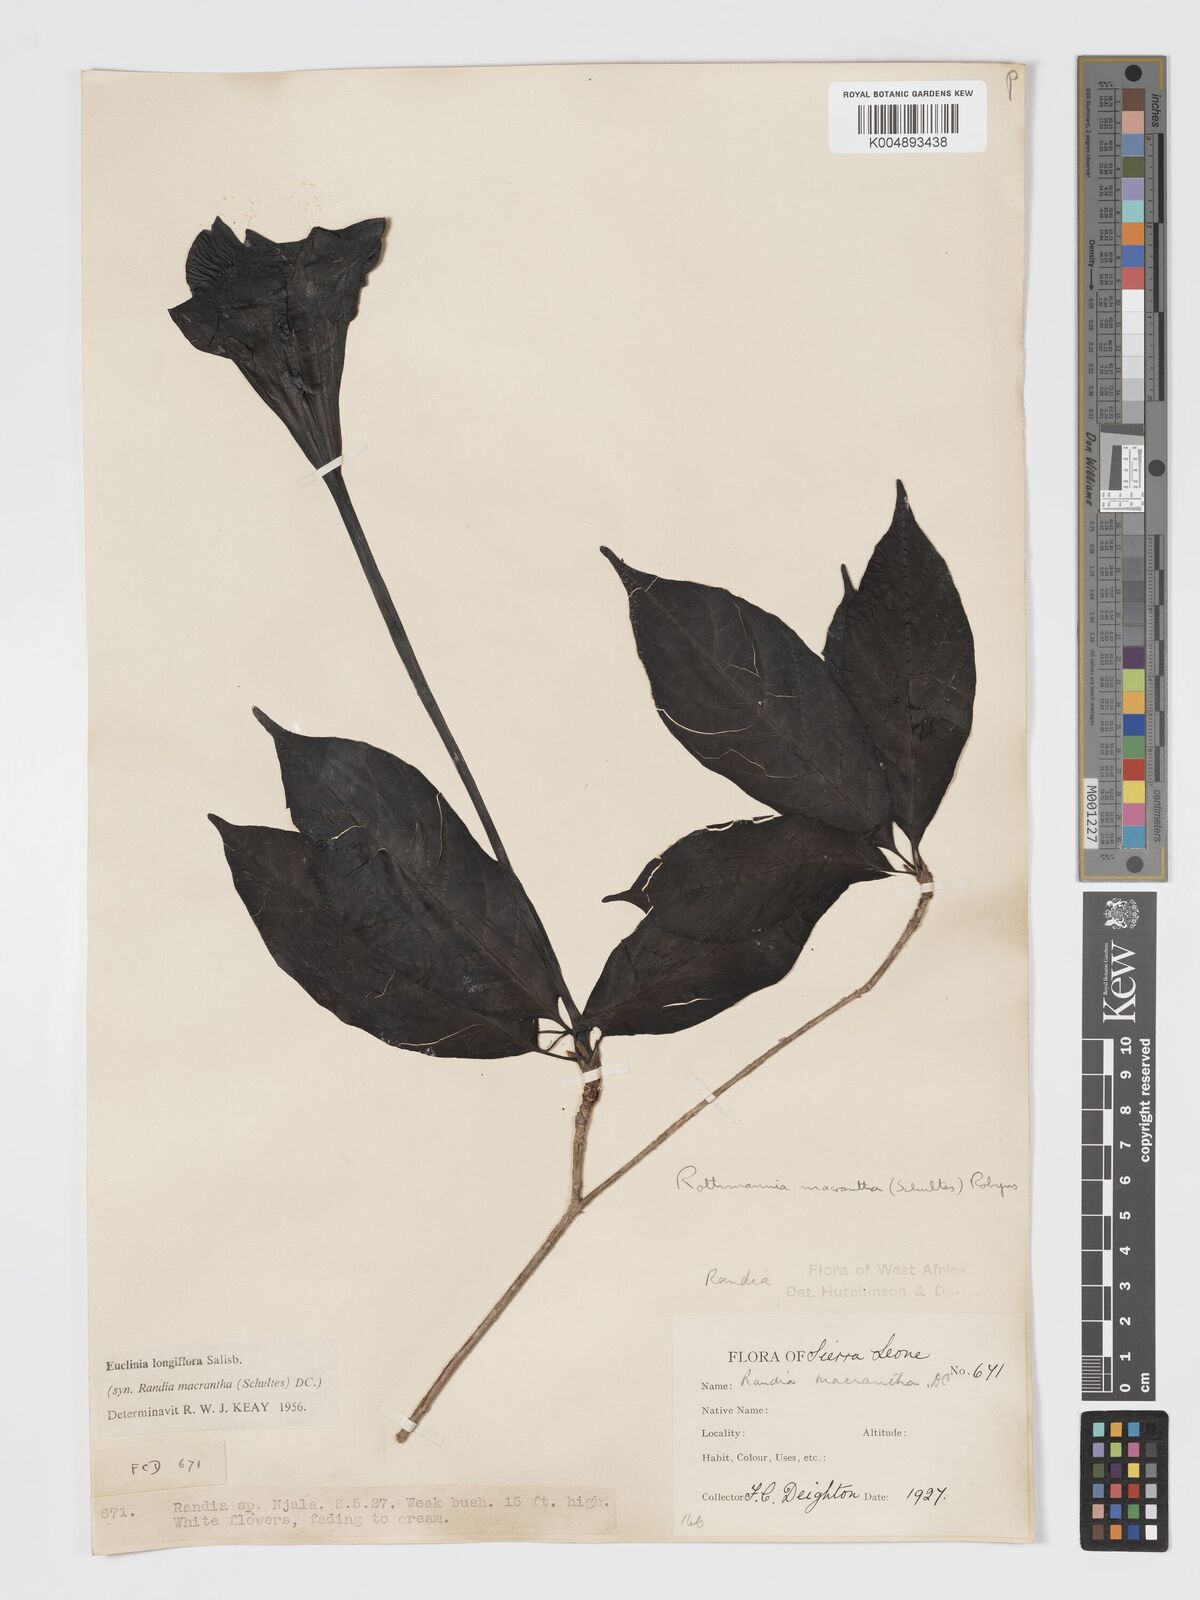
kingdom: Plantae
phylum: Tracheophyta
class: Magnoliopsida
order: Gentianales
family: Rubiaceae
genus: Euclinia
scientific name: Euclinia longiflora
